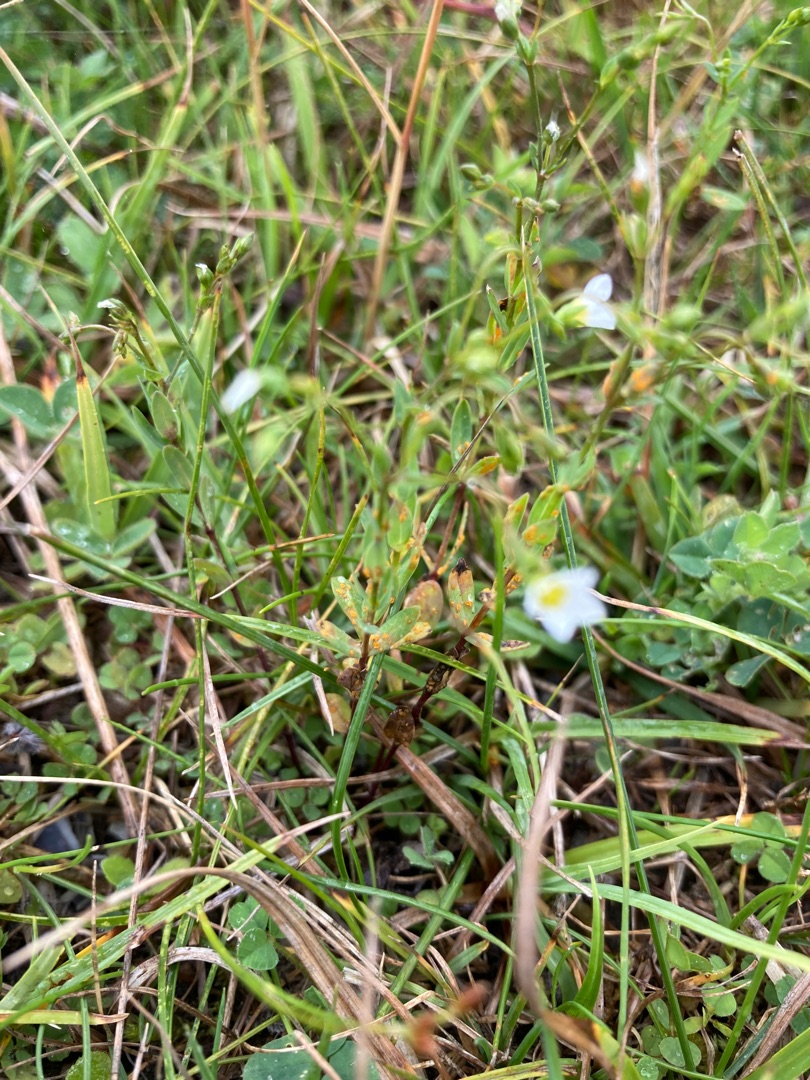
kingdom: Plantae
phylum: Tracheophyta
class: Magnoliopsida
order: Malpighiales
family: Linaceae
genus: Linum
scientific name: Linum catharticum
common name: Vild hør
